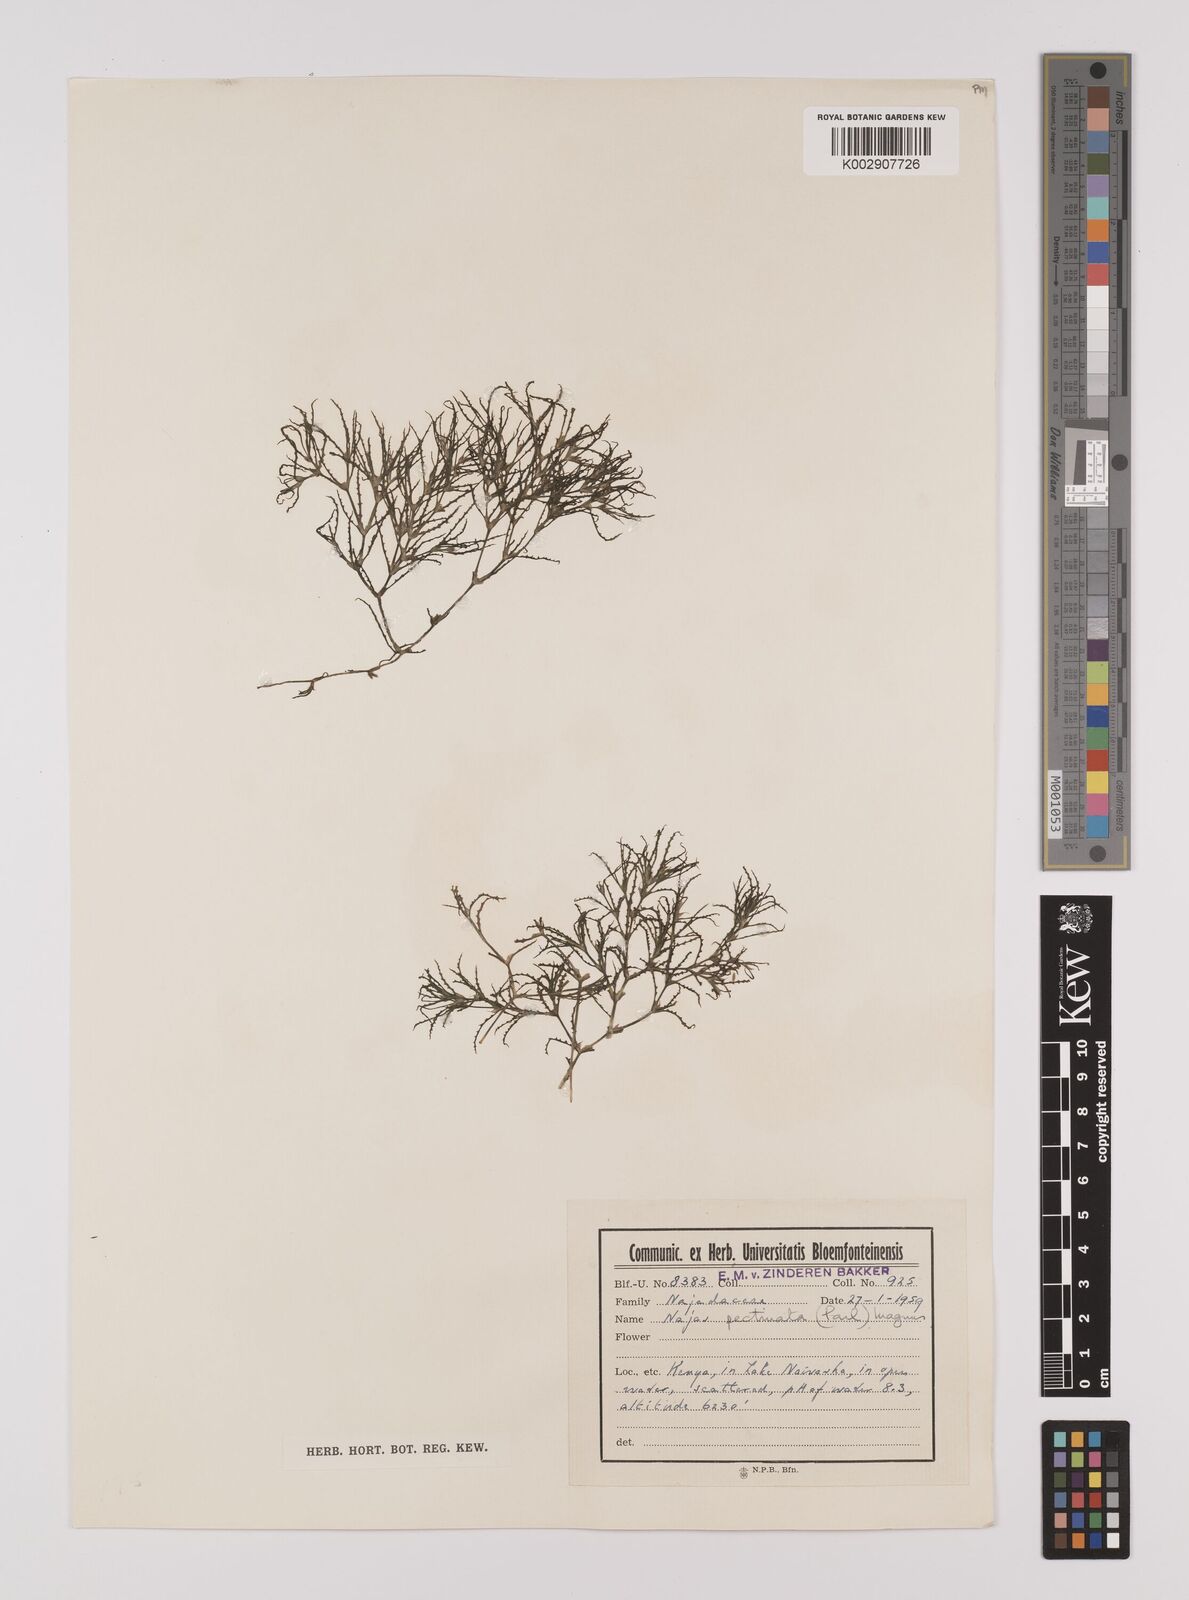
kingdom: Plantae
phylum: Tracheophyta
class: Liliopsida
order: Alismatales
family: Hydrocharitaceae
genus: Najas
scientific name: Najas horrida
